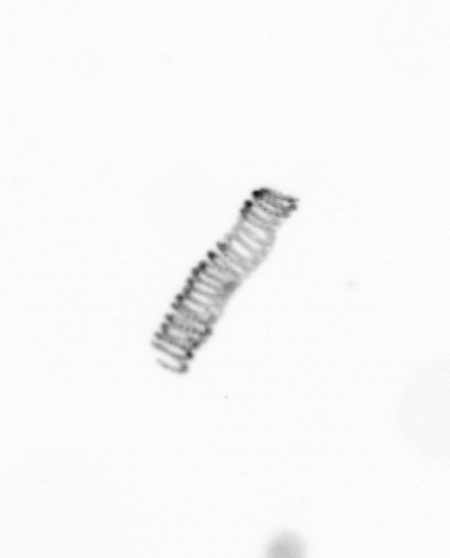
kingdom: Chromista
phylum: Ochrophyta
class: Bacillariophyceae
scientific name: Bacillariophyceae
